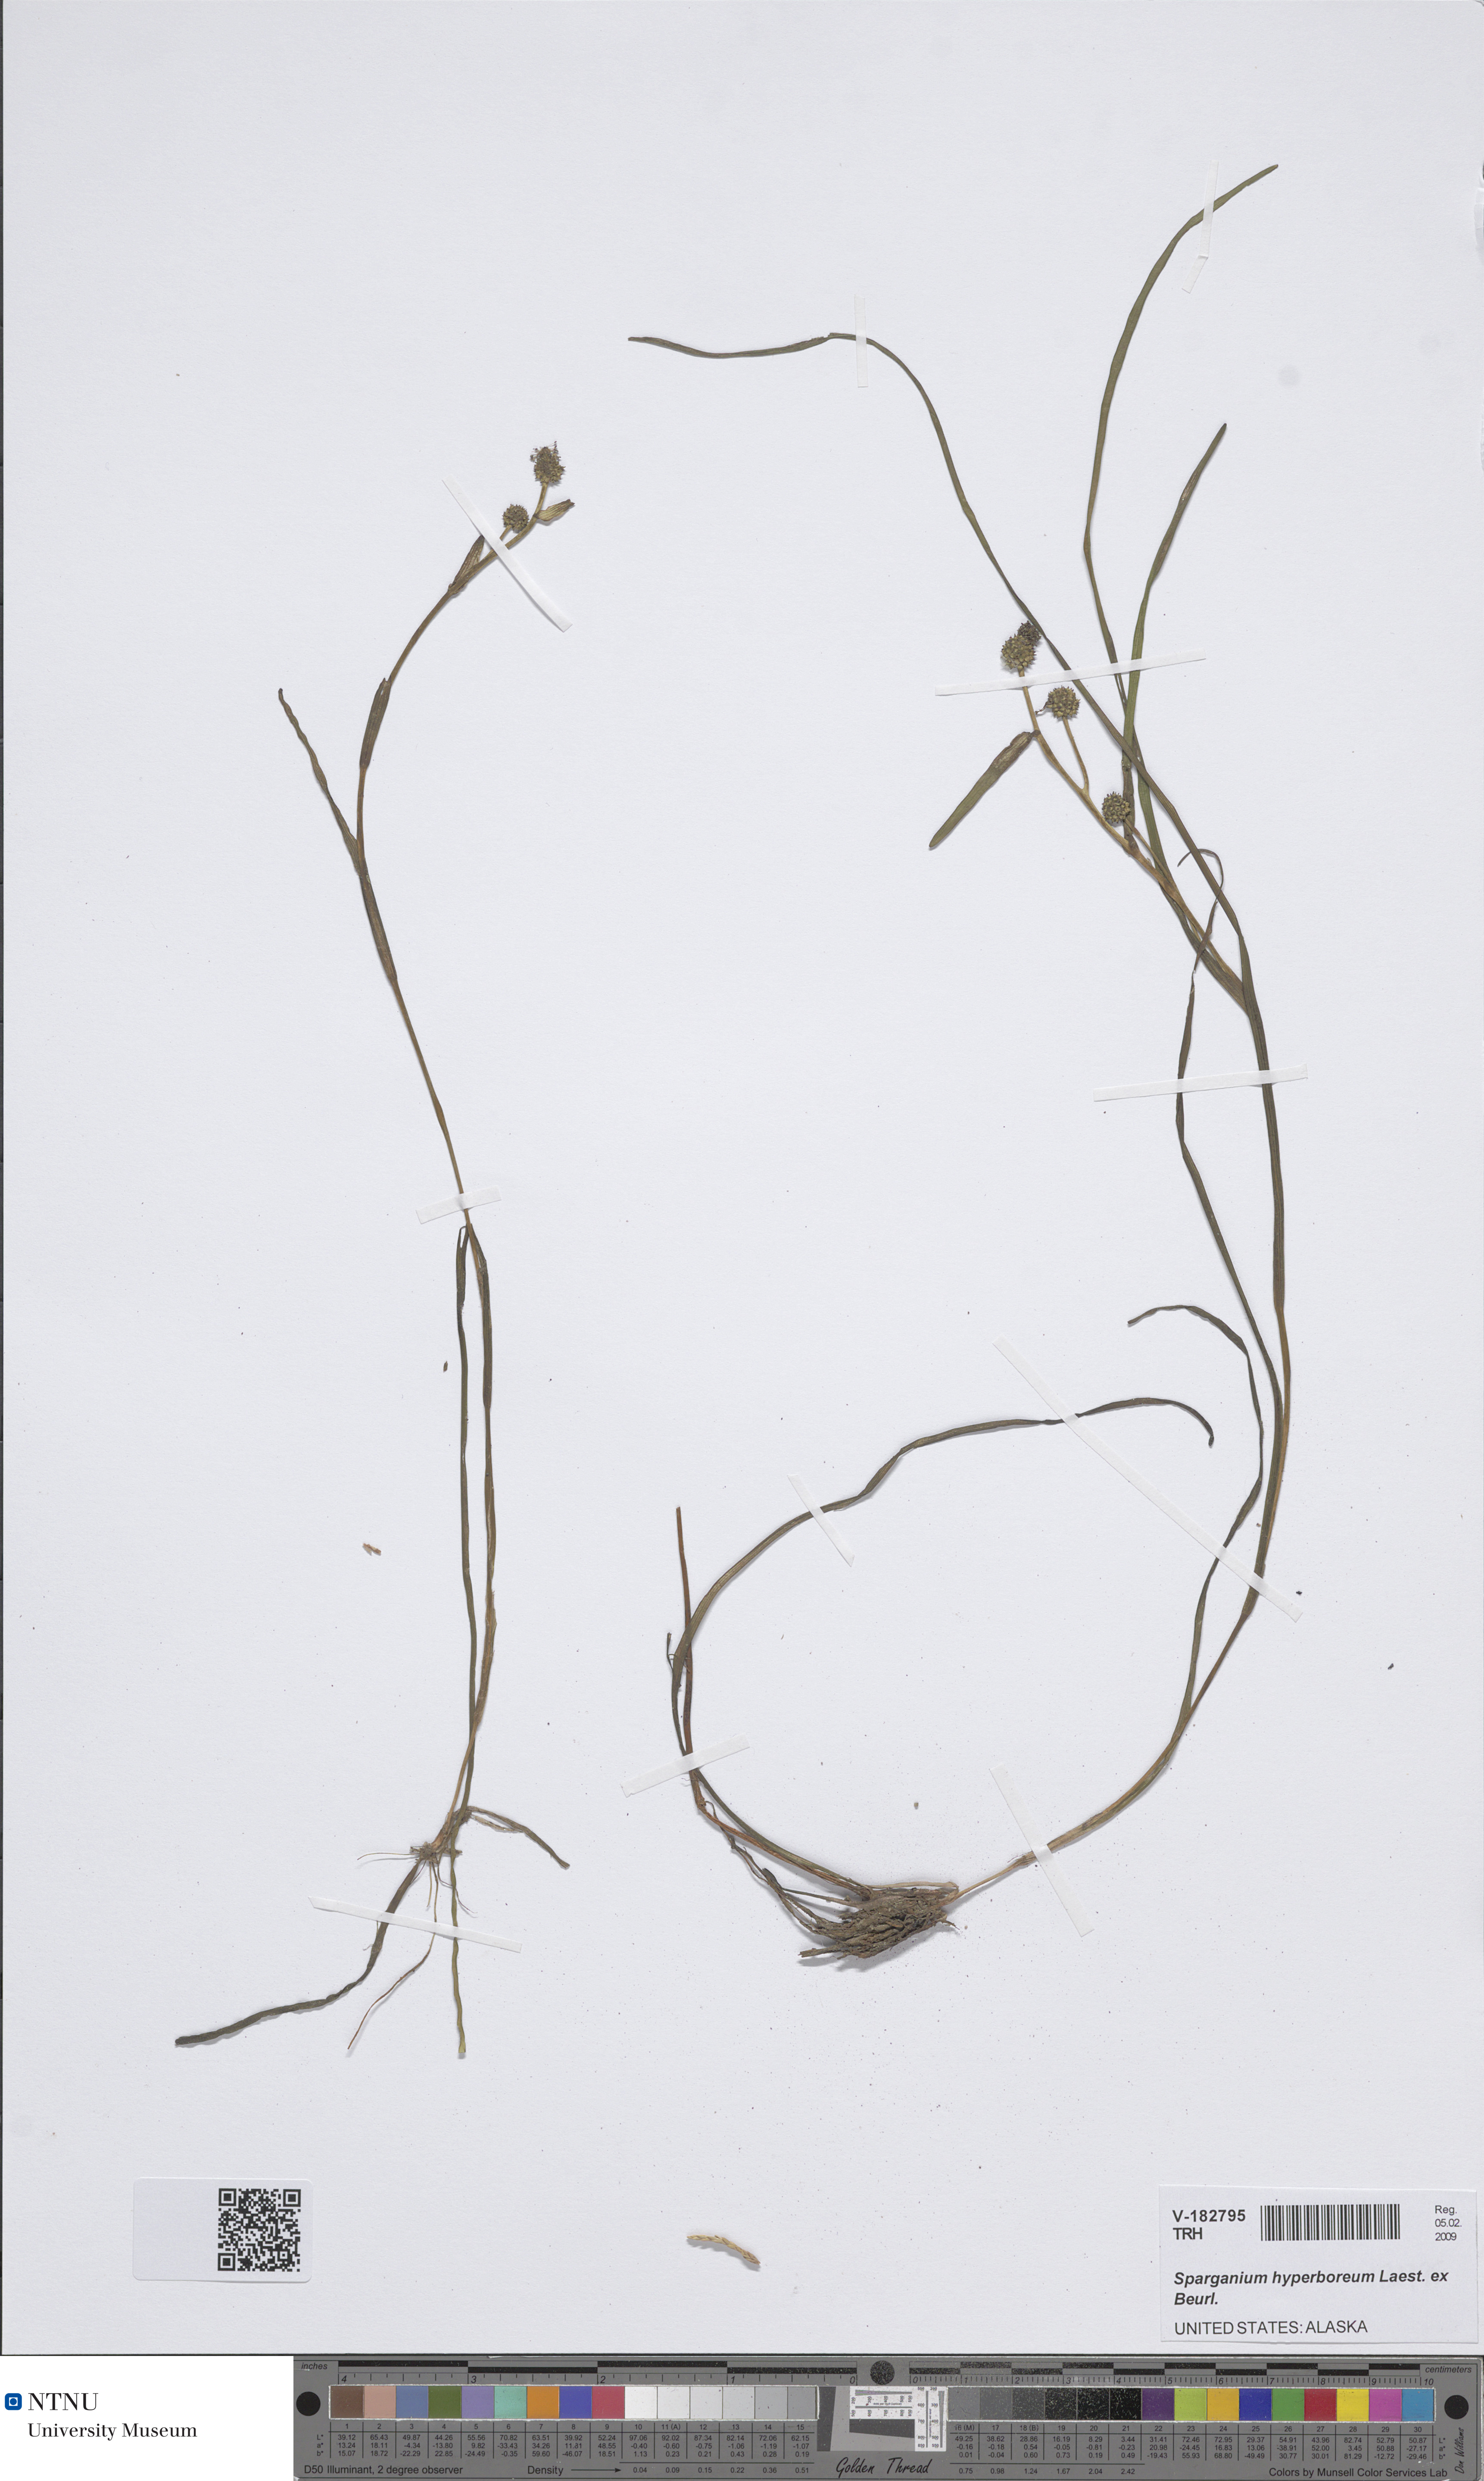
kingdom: Plantae
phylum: Tracheophyta
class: Liliopsida
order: Poales
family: Typhaceae
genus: Sparganium
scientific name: Sparganium hyperboreum
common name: Arctic burreed
